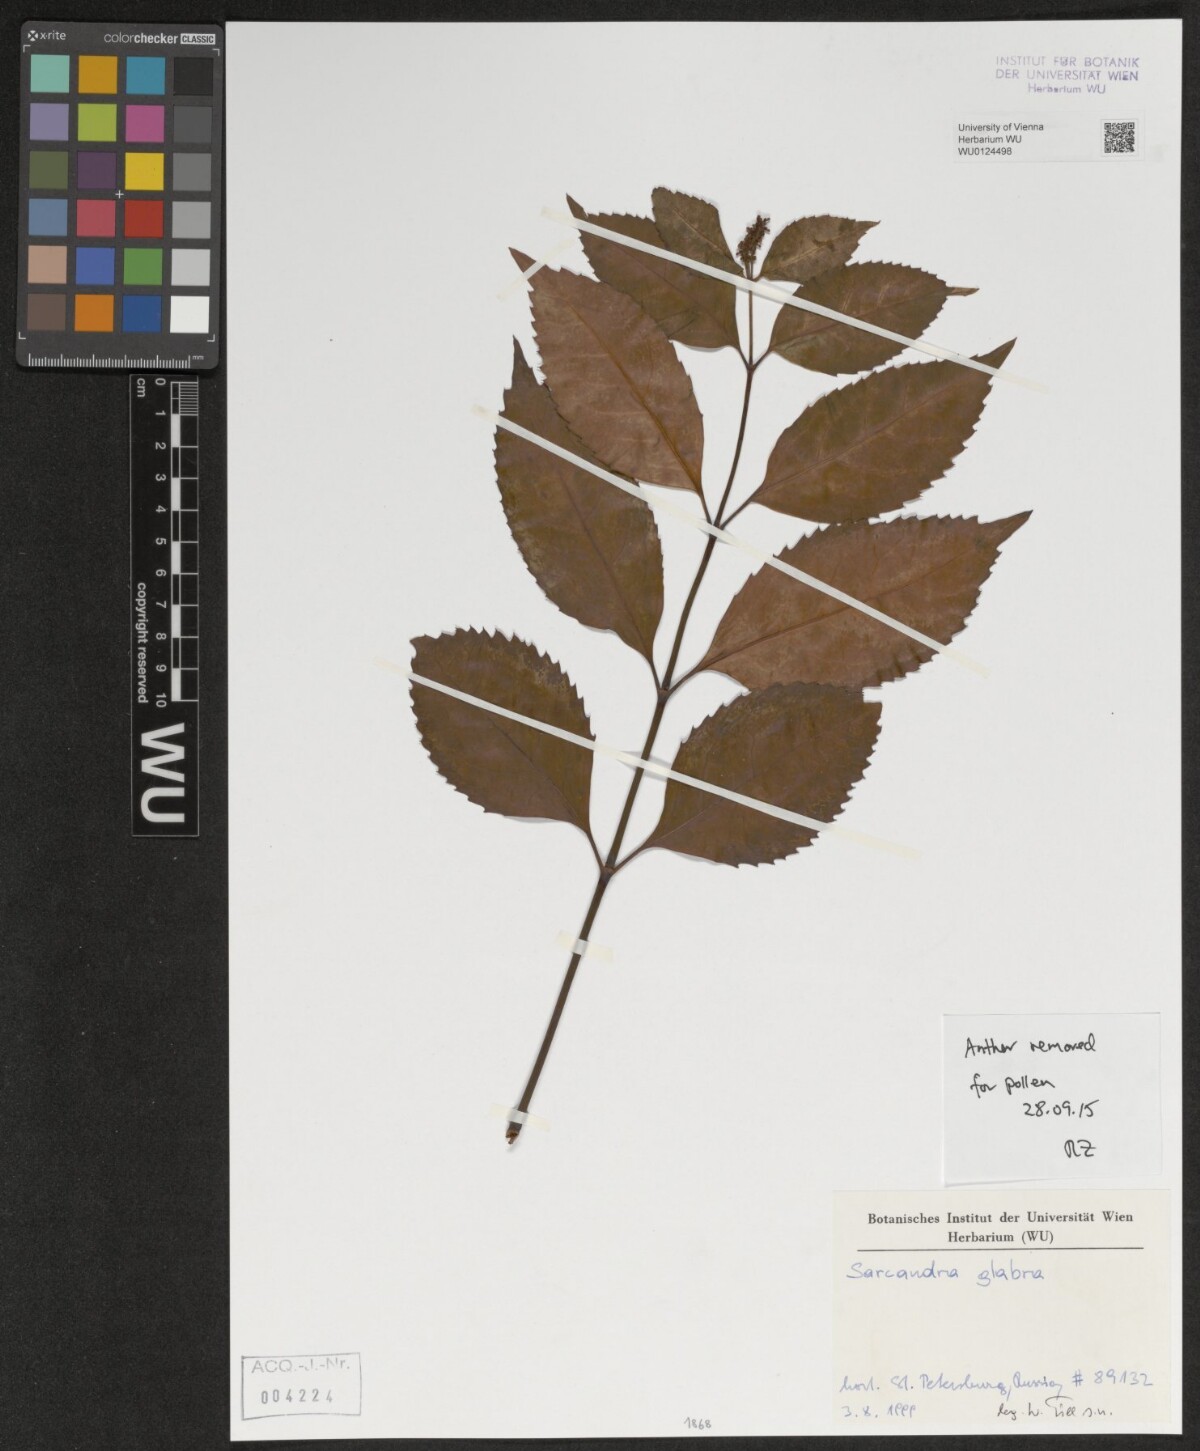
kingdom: Plantae
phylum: Tracheophyta
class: Magnoliopsida
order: Chloranthales
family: Chloranthaceae
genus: Sarcandra
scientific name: Sarcandra glabra
